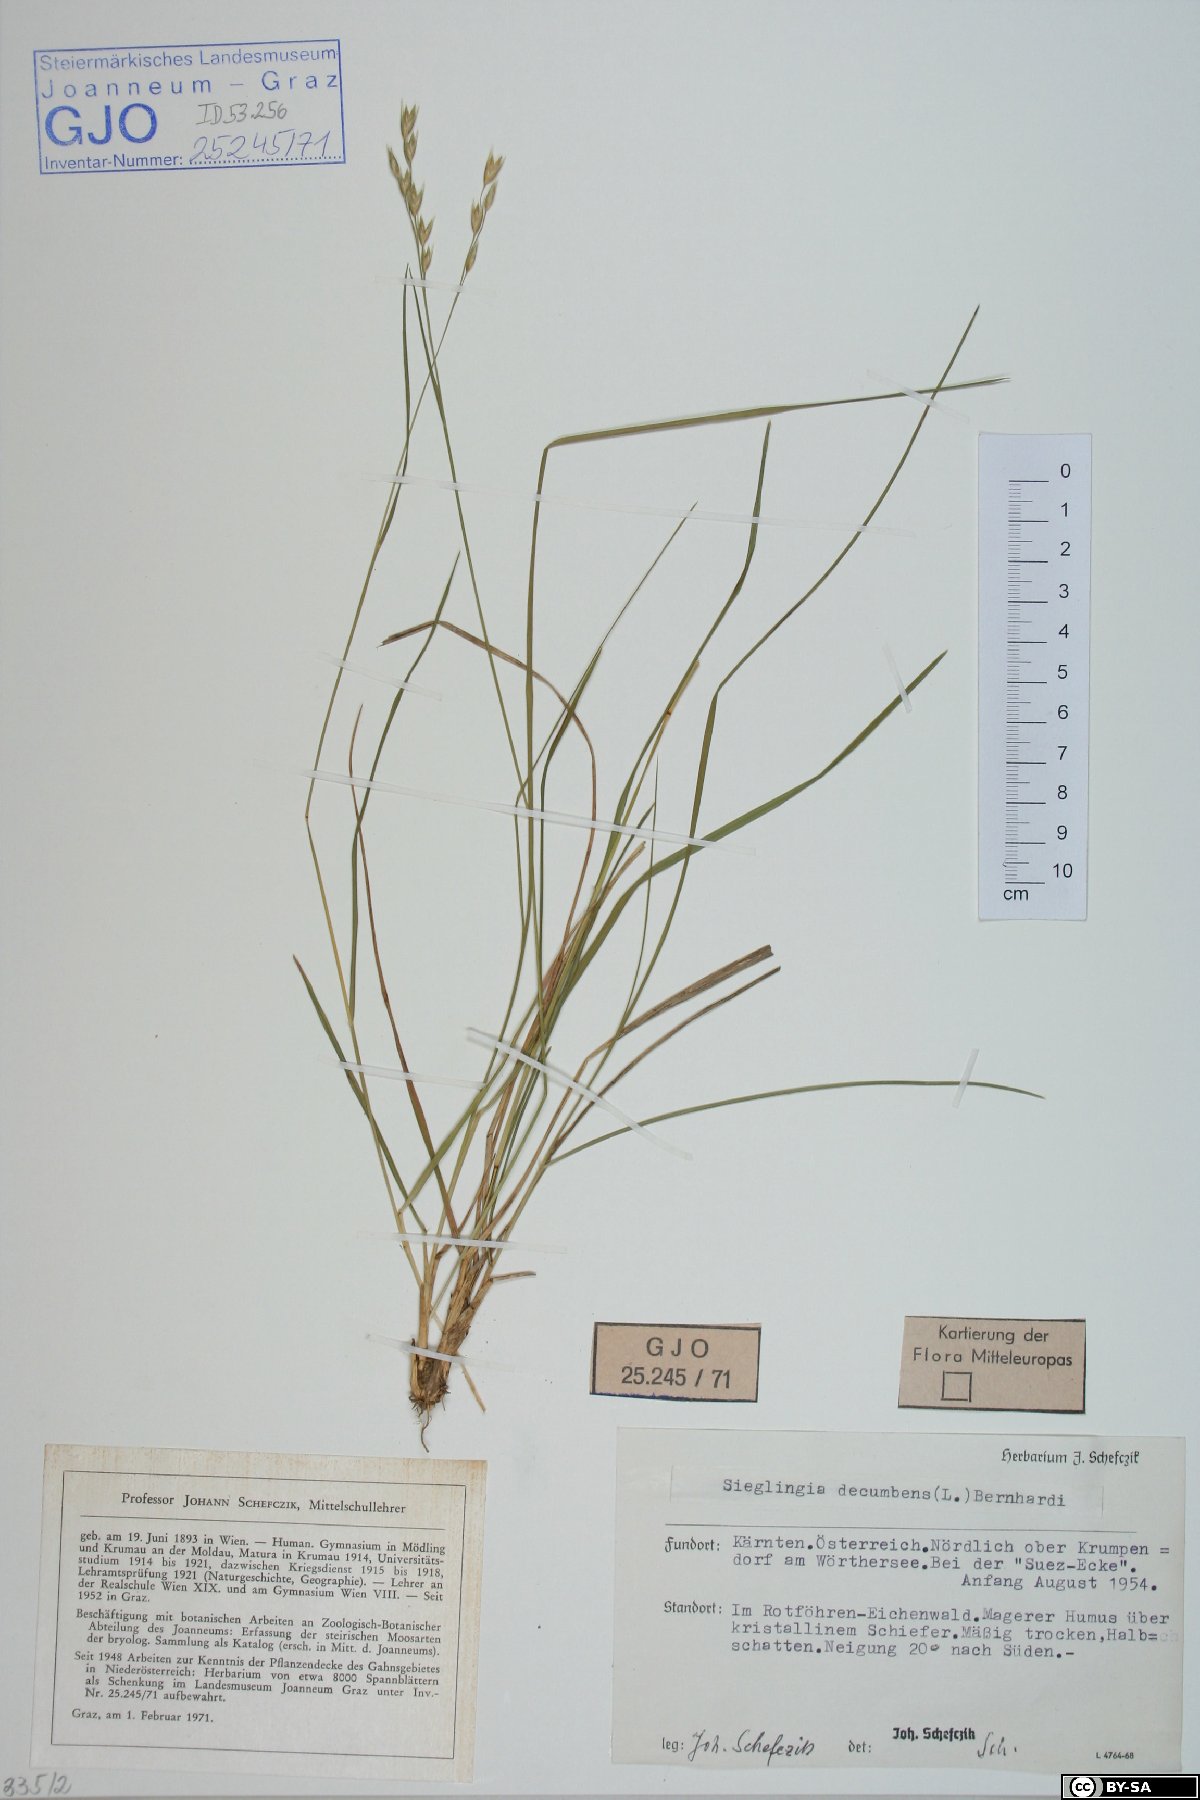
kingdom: Plantae
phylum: Tracheophyta
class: Liliopsida
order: Poales
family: Poaceae
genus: Danthonia
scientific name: Danthonia decumbens
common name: Common heathgrass
